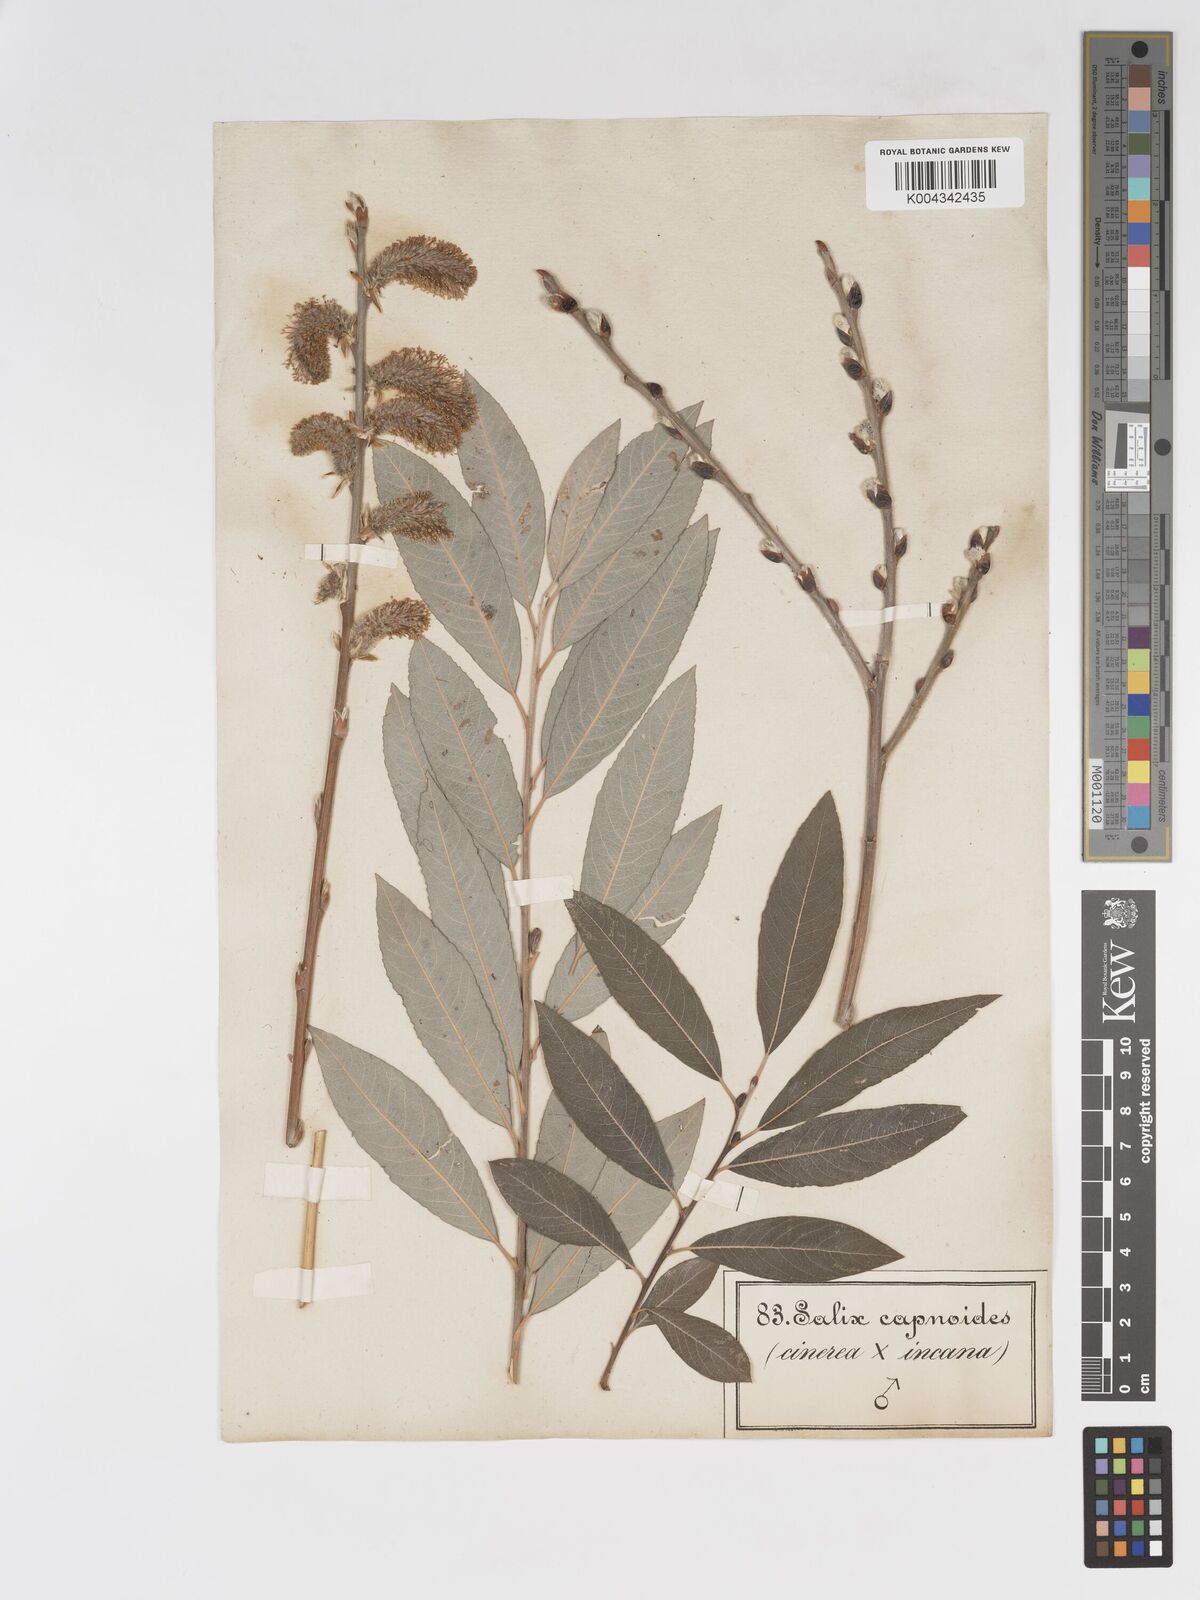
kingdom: Plantae
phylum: Tracheophyta
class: Magnoliopsida
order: Malpighiales
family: Salicaceae
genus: Salix
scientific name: Salix
